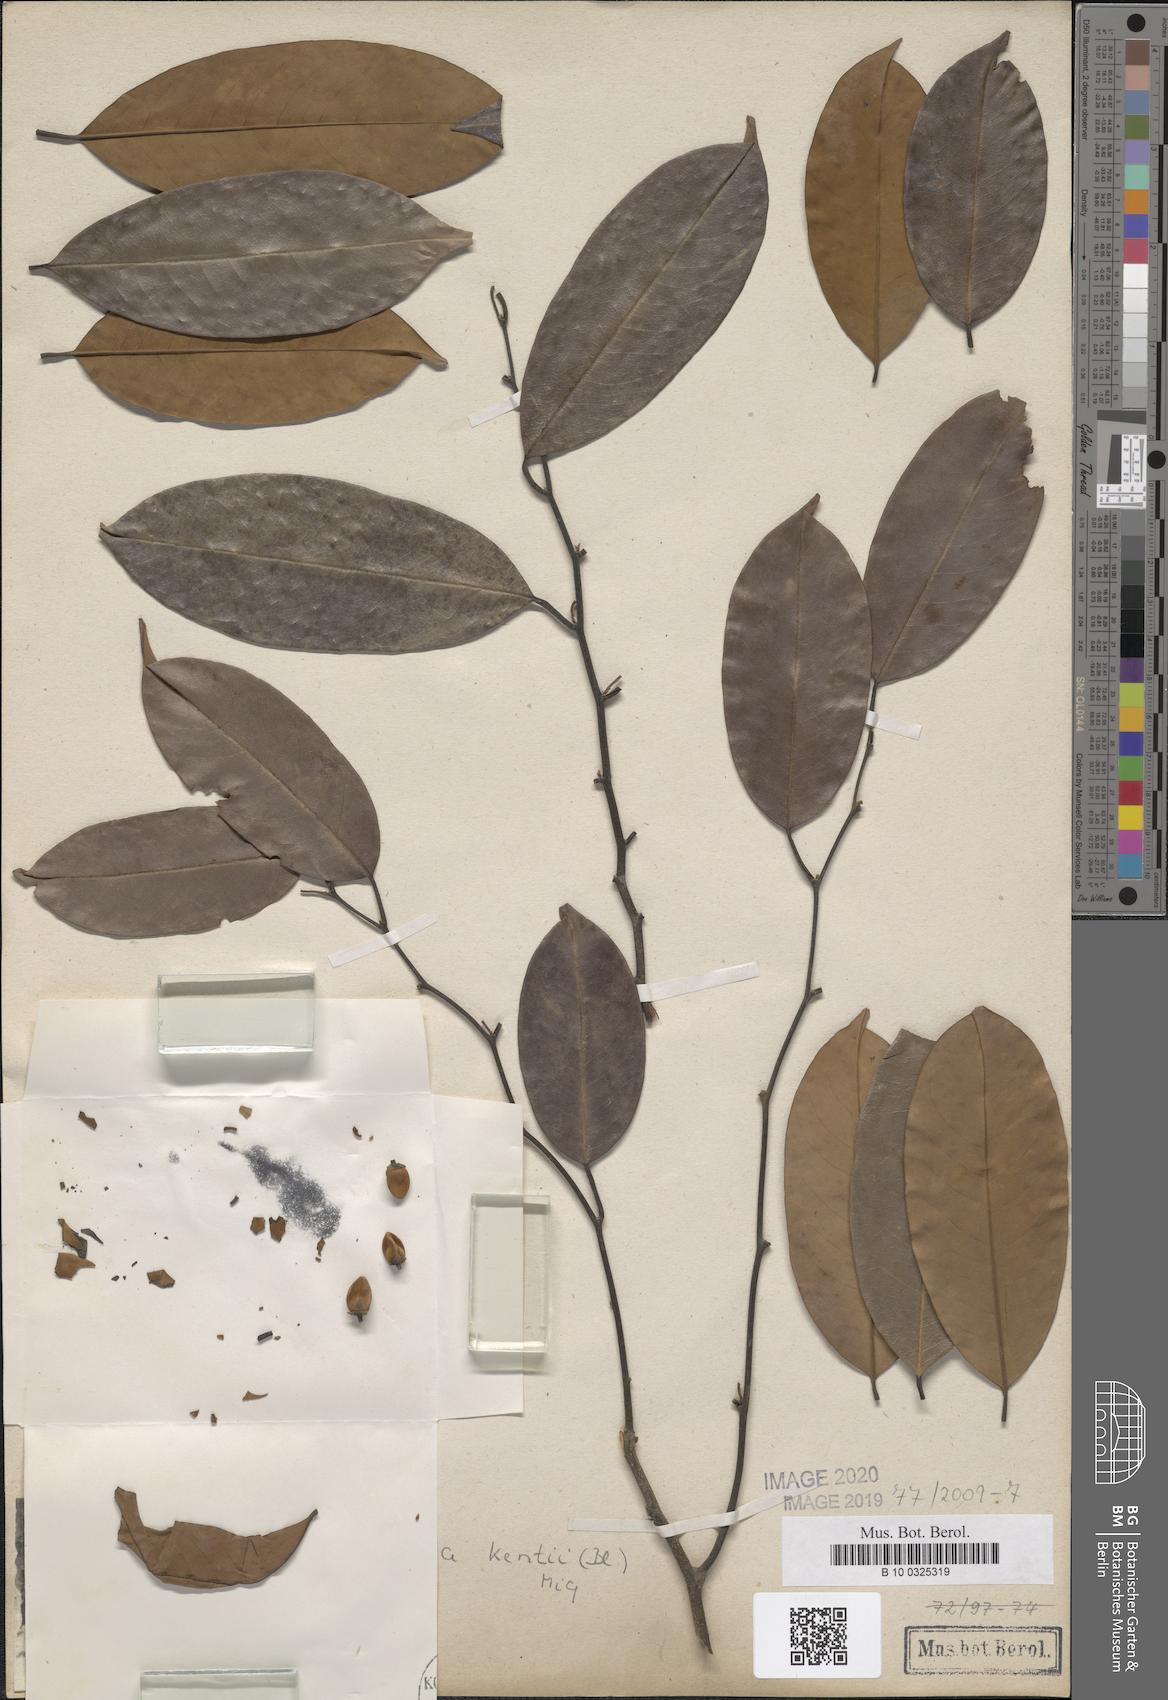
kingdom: Plantae
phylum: Tracheophyta
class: Magnoliopsida
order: Magnoliales
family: Annonaceae
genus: Mitrella
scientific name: Mitrella kentii
